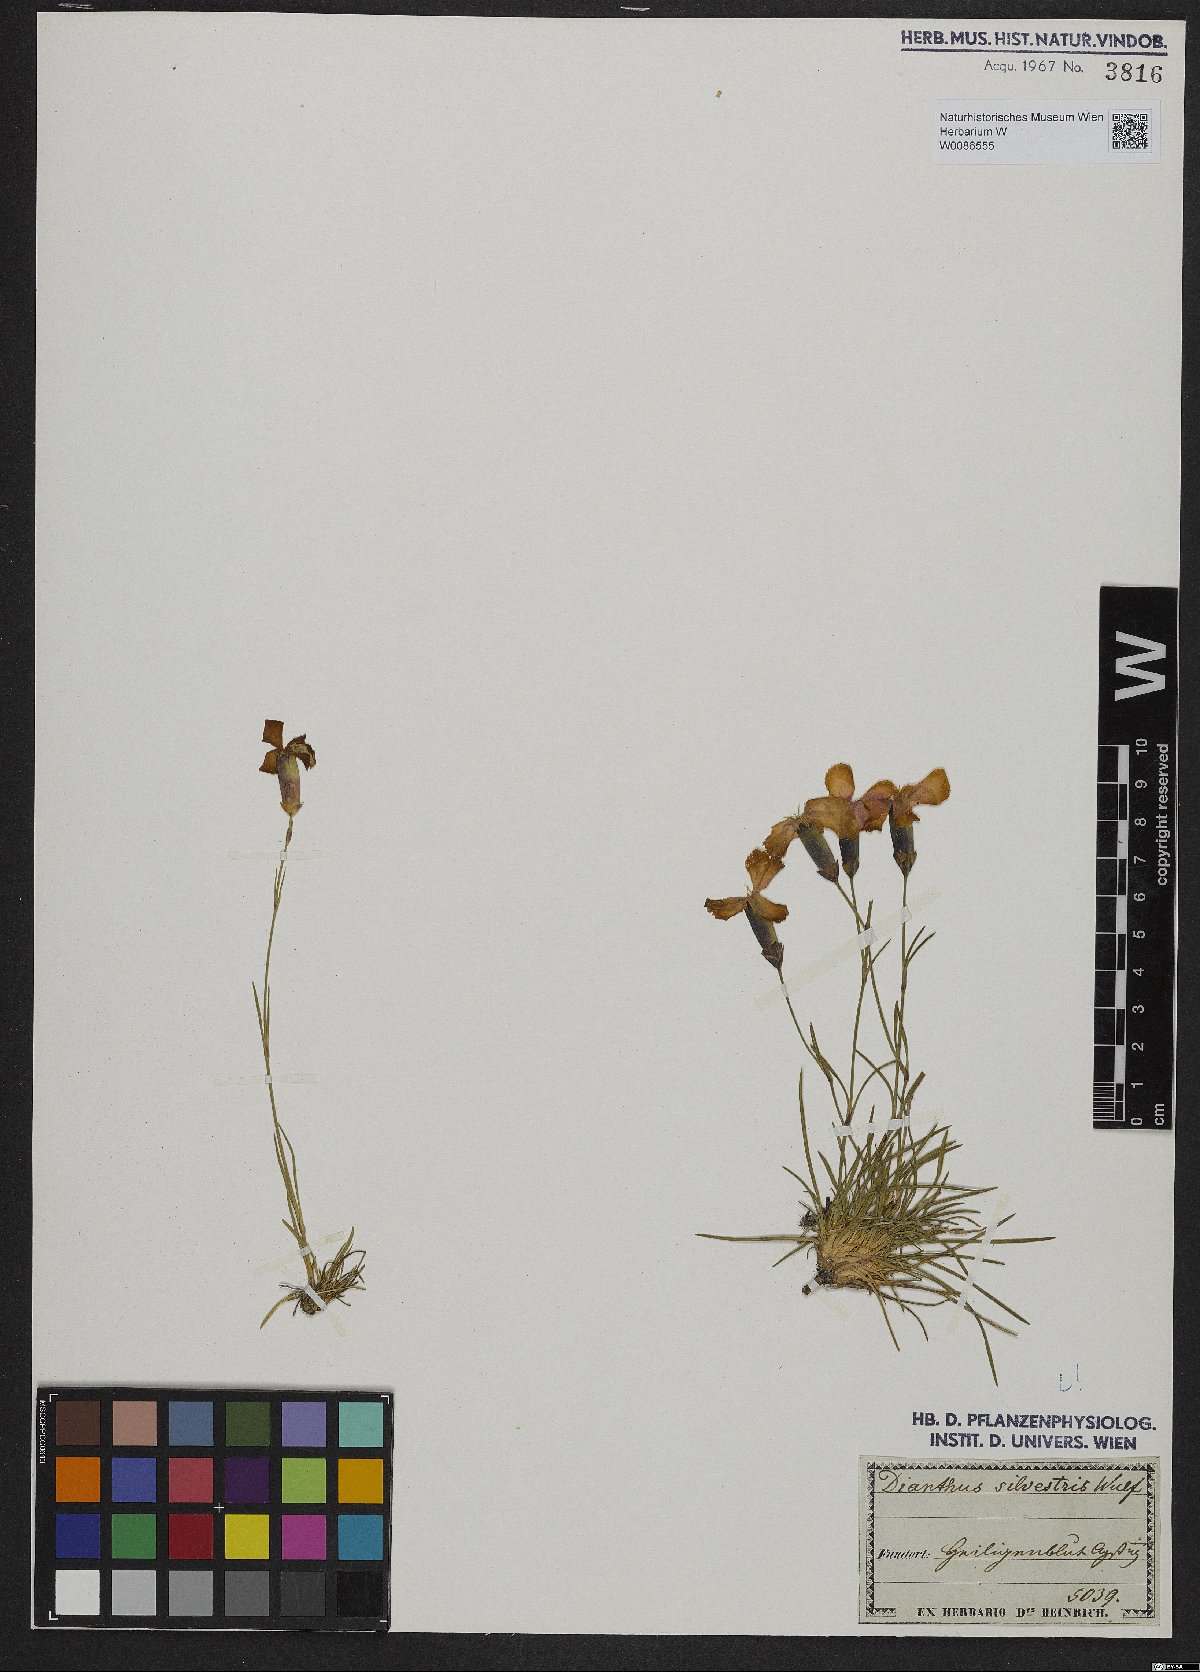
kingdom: Plantae
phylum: Tracheophyta
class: Magnoliopsida
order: Caryophyllales
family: Caryophyllaceae
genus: Dianthus
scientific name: Dianthus sylvestris
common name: Wood pink
